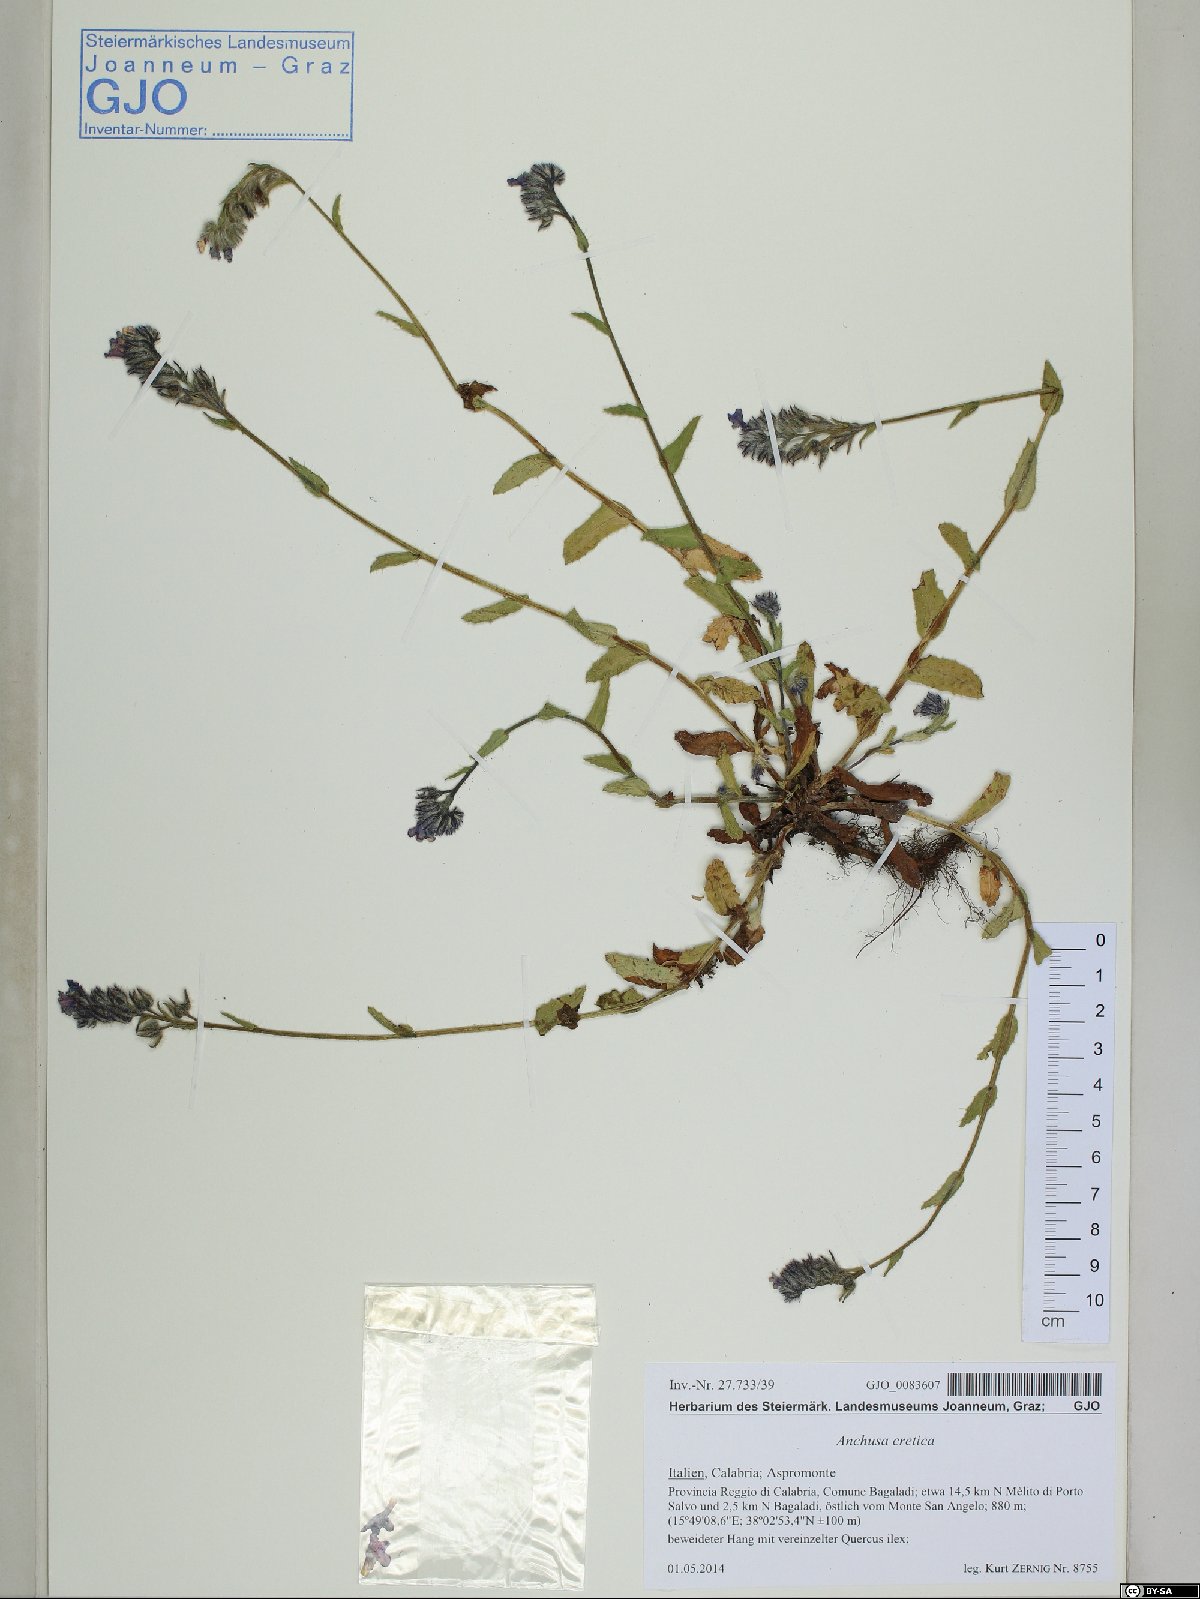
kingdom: Plantae
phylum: Tracheophyta
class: Magnoliopsida
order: Boraginales
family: Boraginaceae
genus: Anchusella
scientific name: Anchusella cretica
